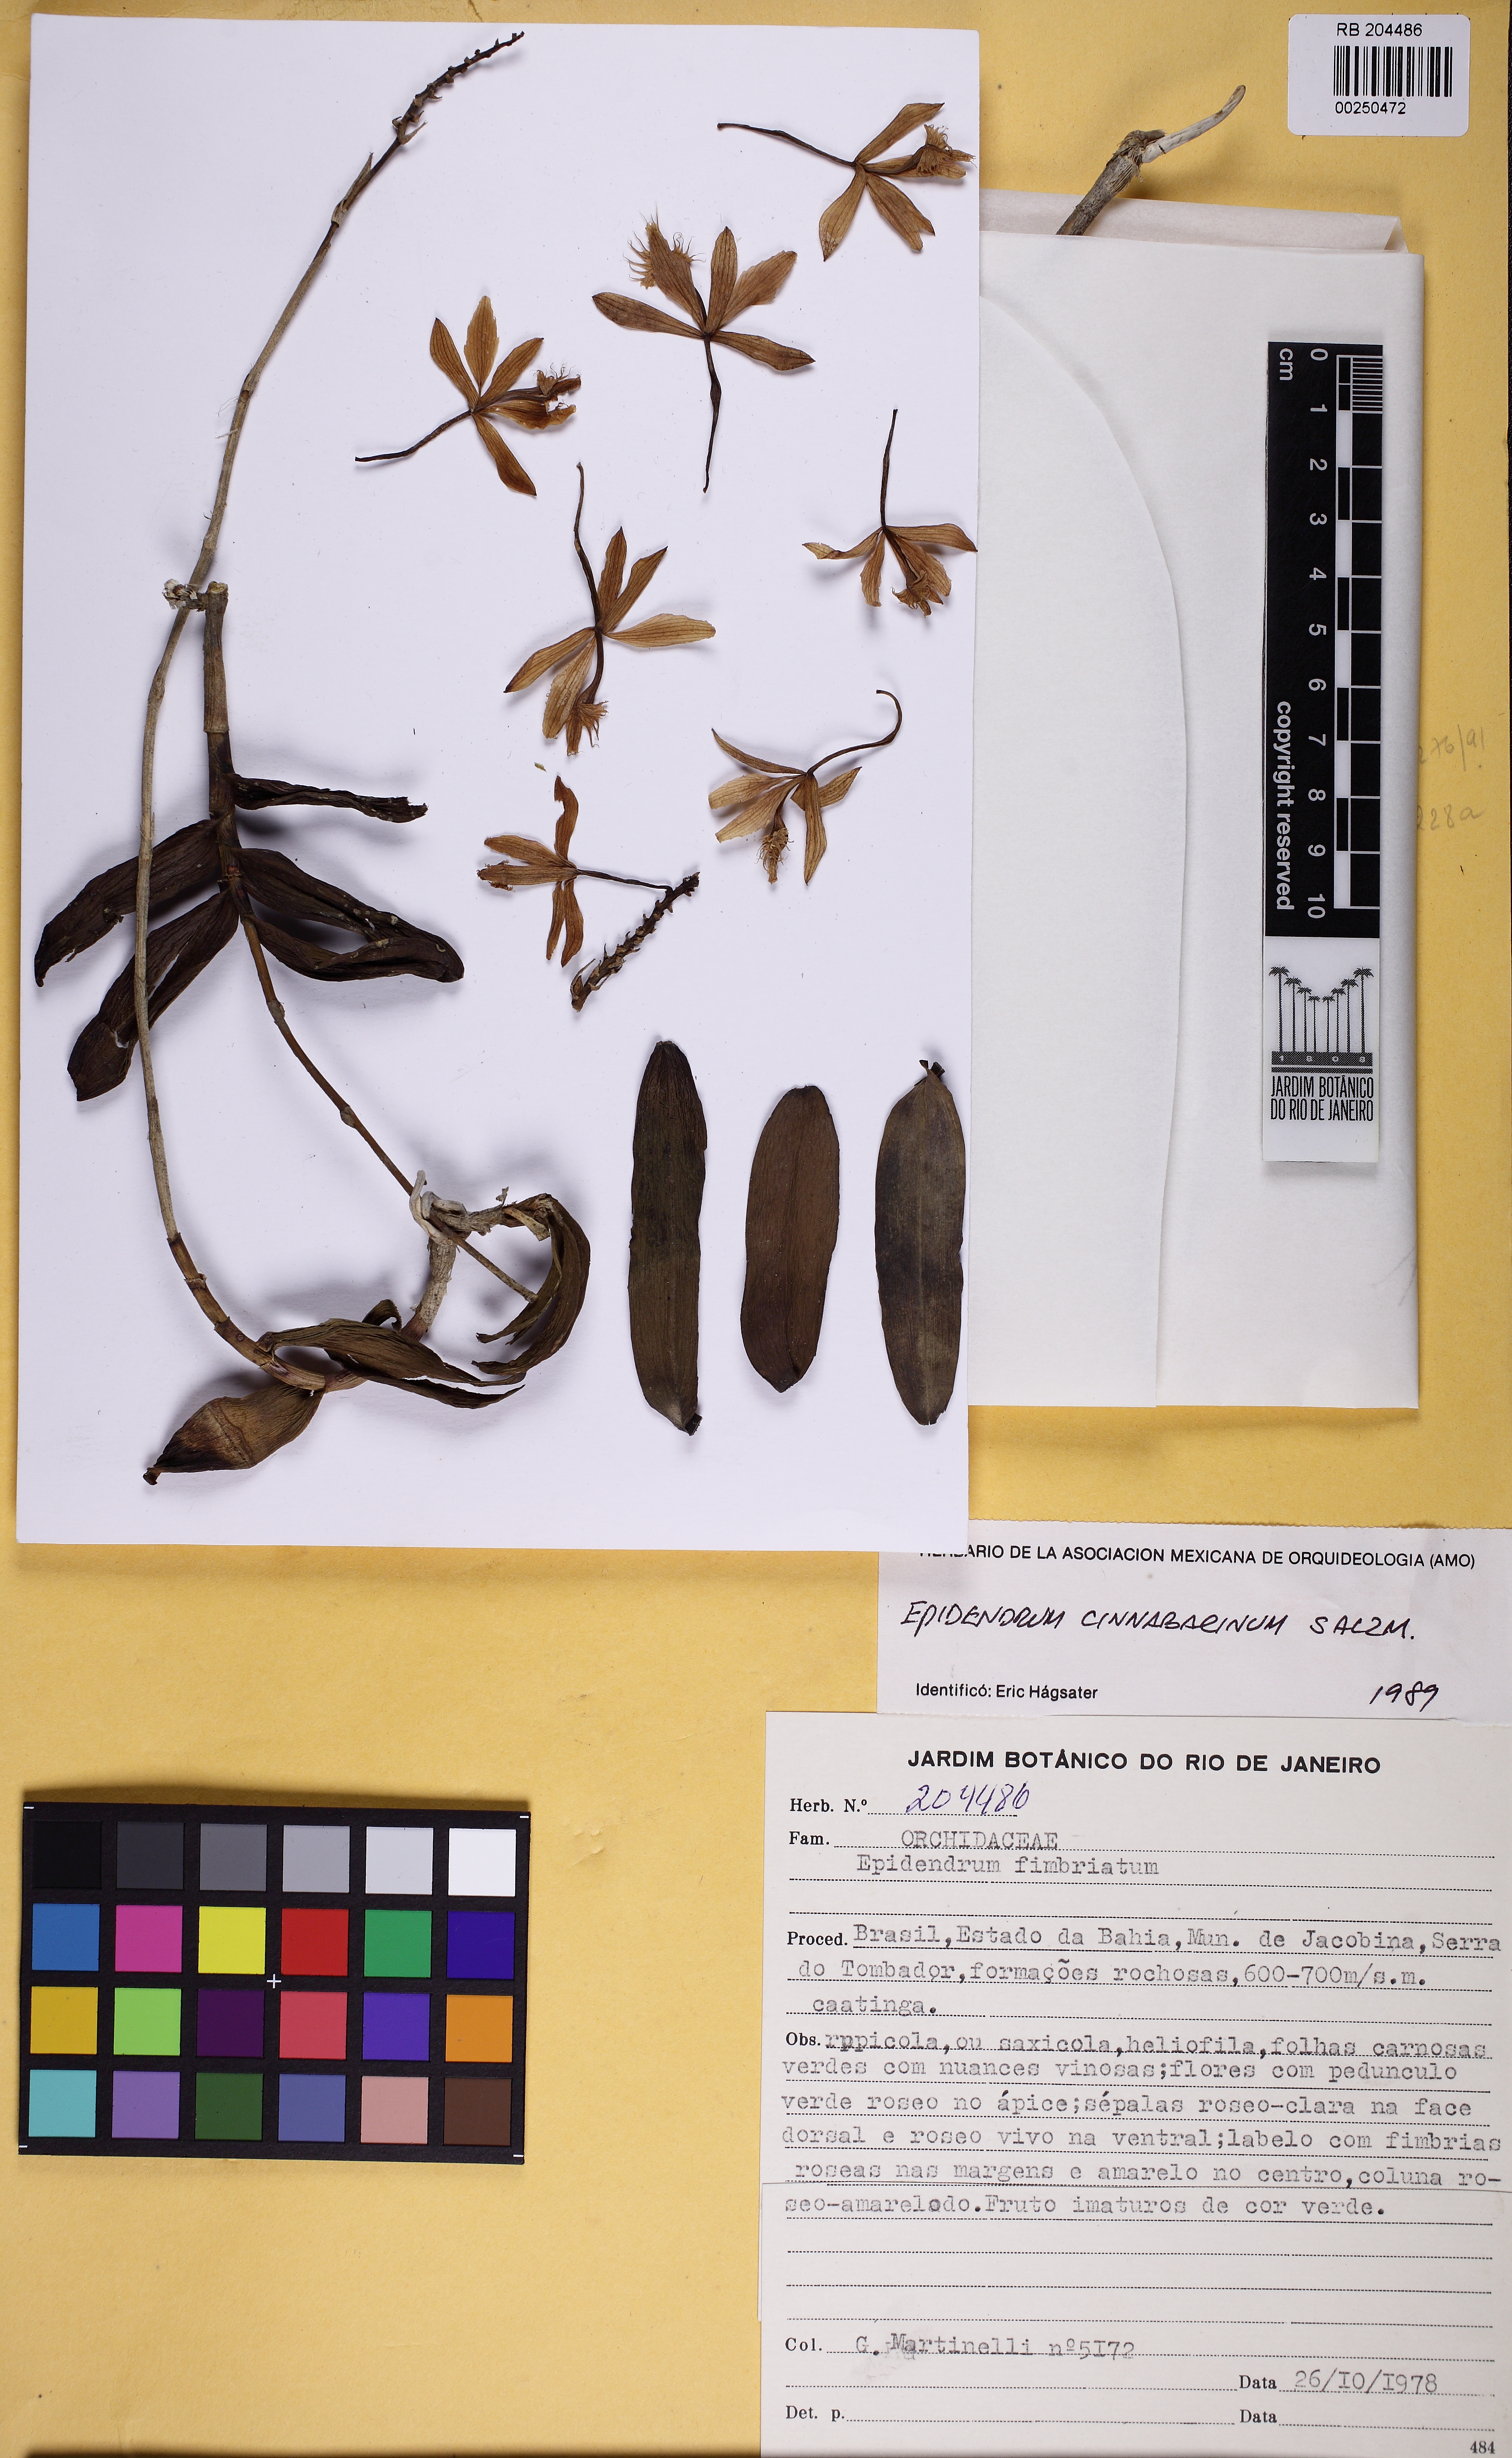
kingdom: Plantae
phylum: Tracheophyta
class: Liliopsida
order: Asparagales
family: Orchidaceae
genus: Epidendrum
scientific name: Epidendrum cinnabarinum
